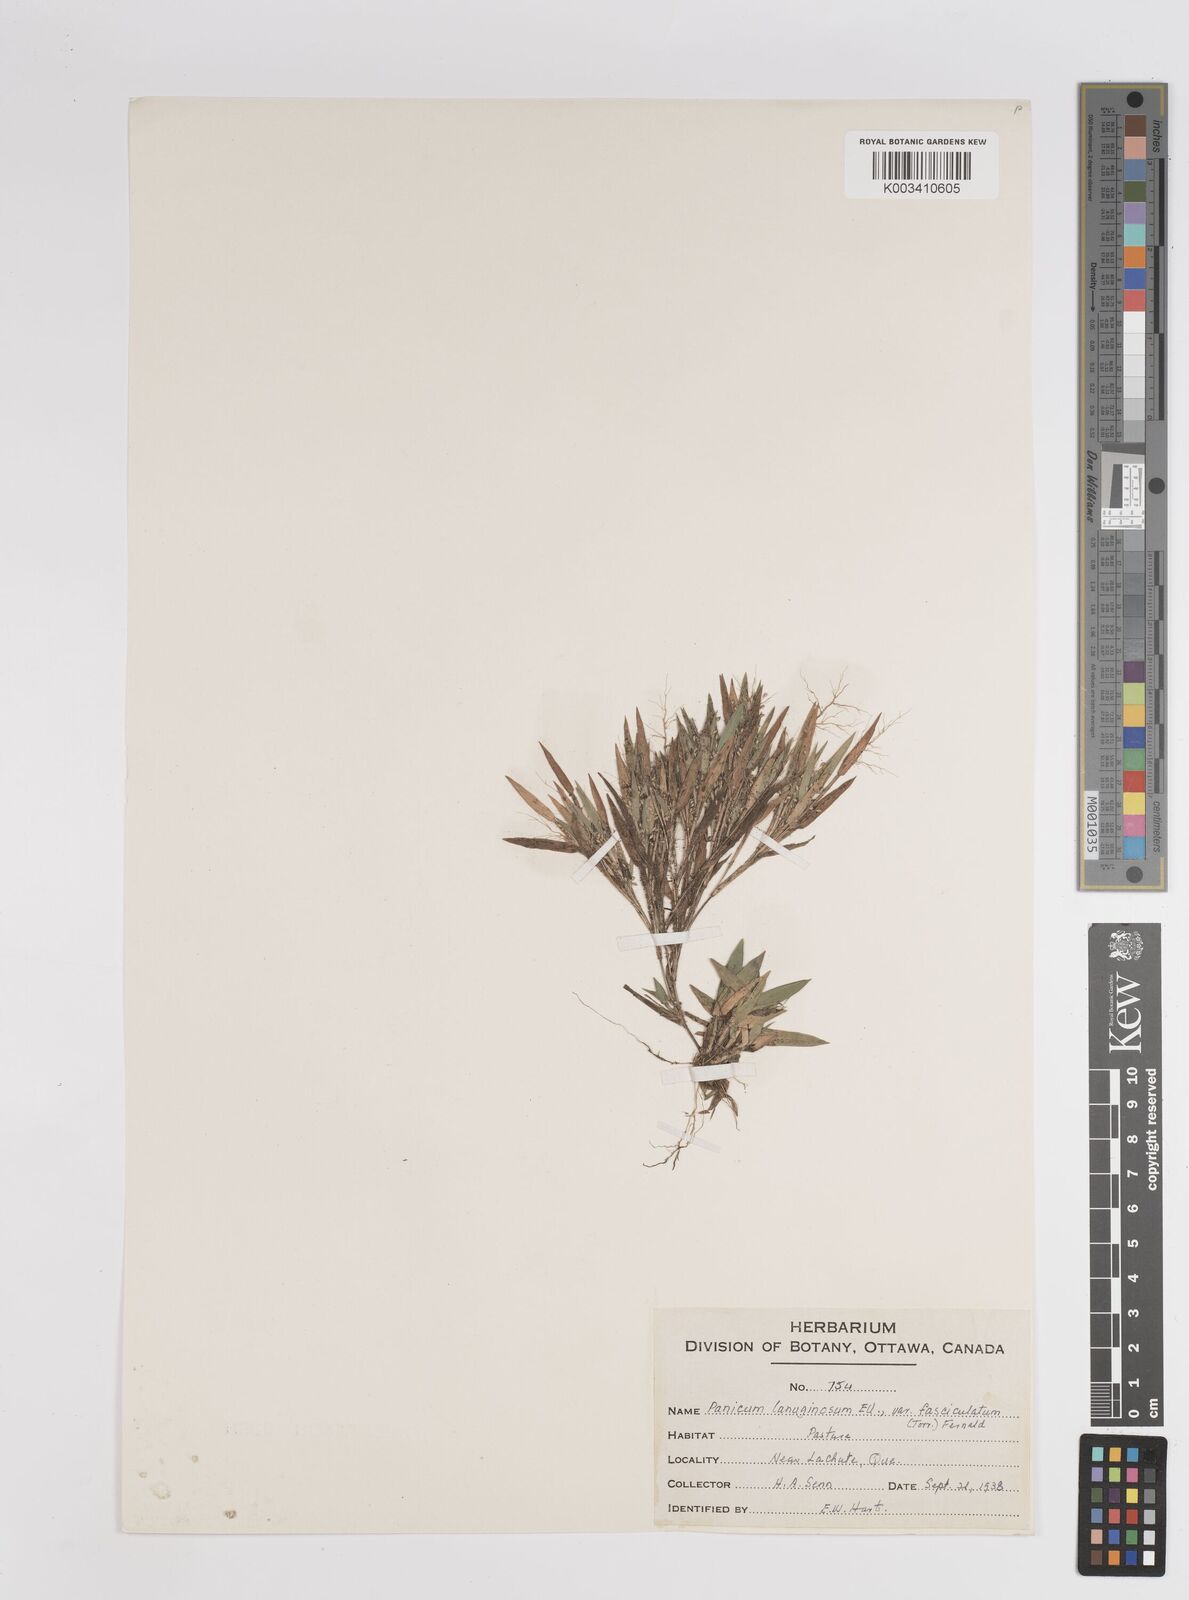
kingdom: Plantae
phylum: Tracheophyta
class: Liliopsida
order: Poales
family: Poaceae
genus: Dichanthelium
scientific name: Dichanthelium lanuginosum
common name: Woolly panicgrass
